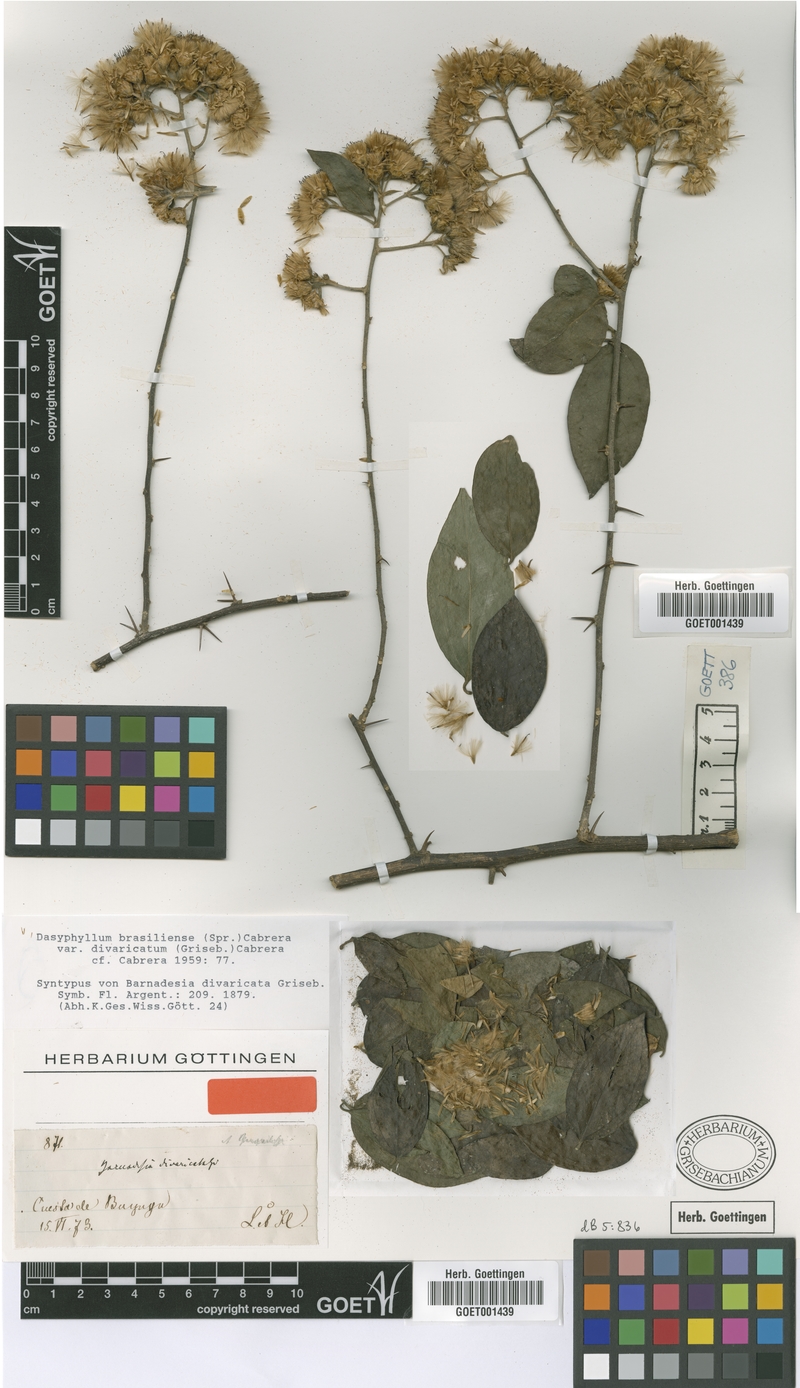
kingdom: Plantae
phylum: Tracheophyta
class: Magnoliopsida
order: Asterales
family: Asteraceae
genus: Dasyphyllum
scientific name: Dasyphyllum brasiliense
